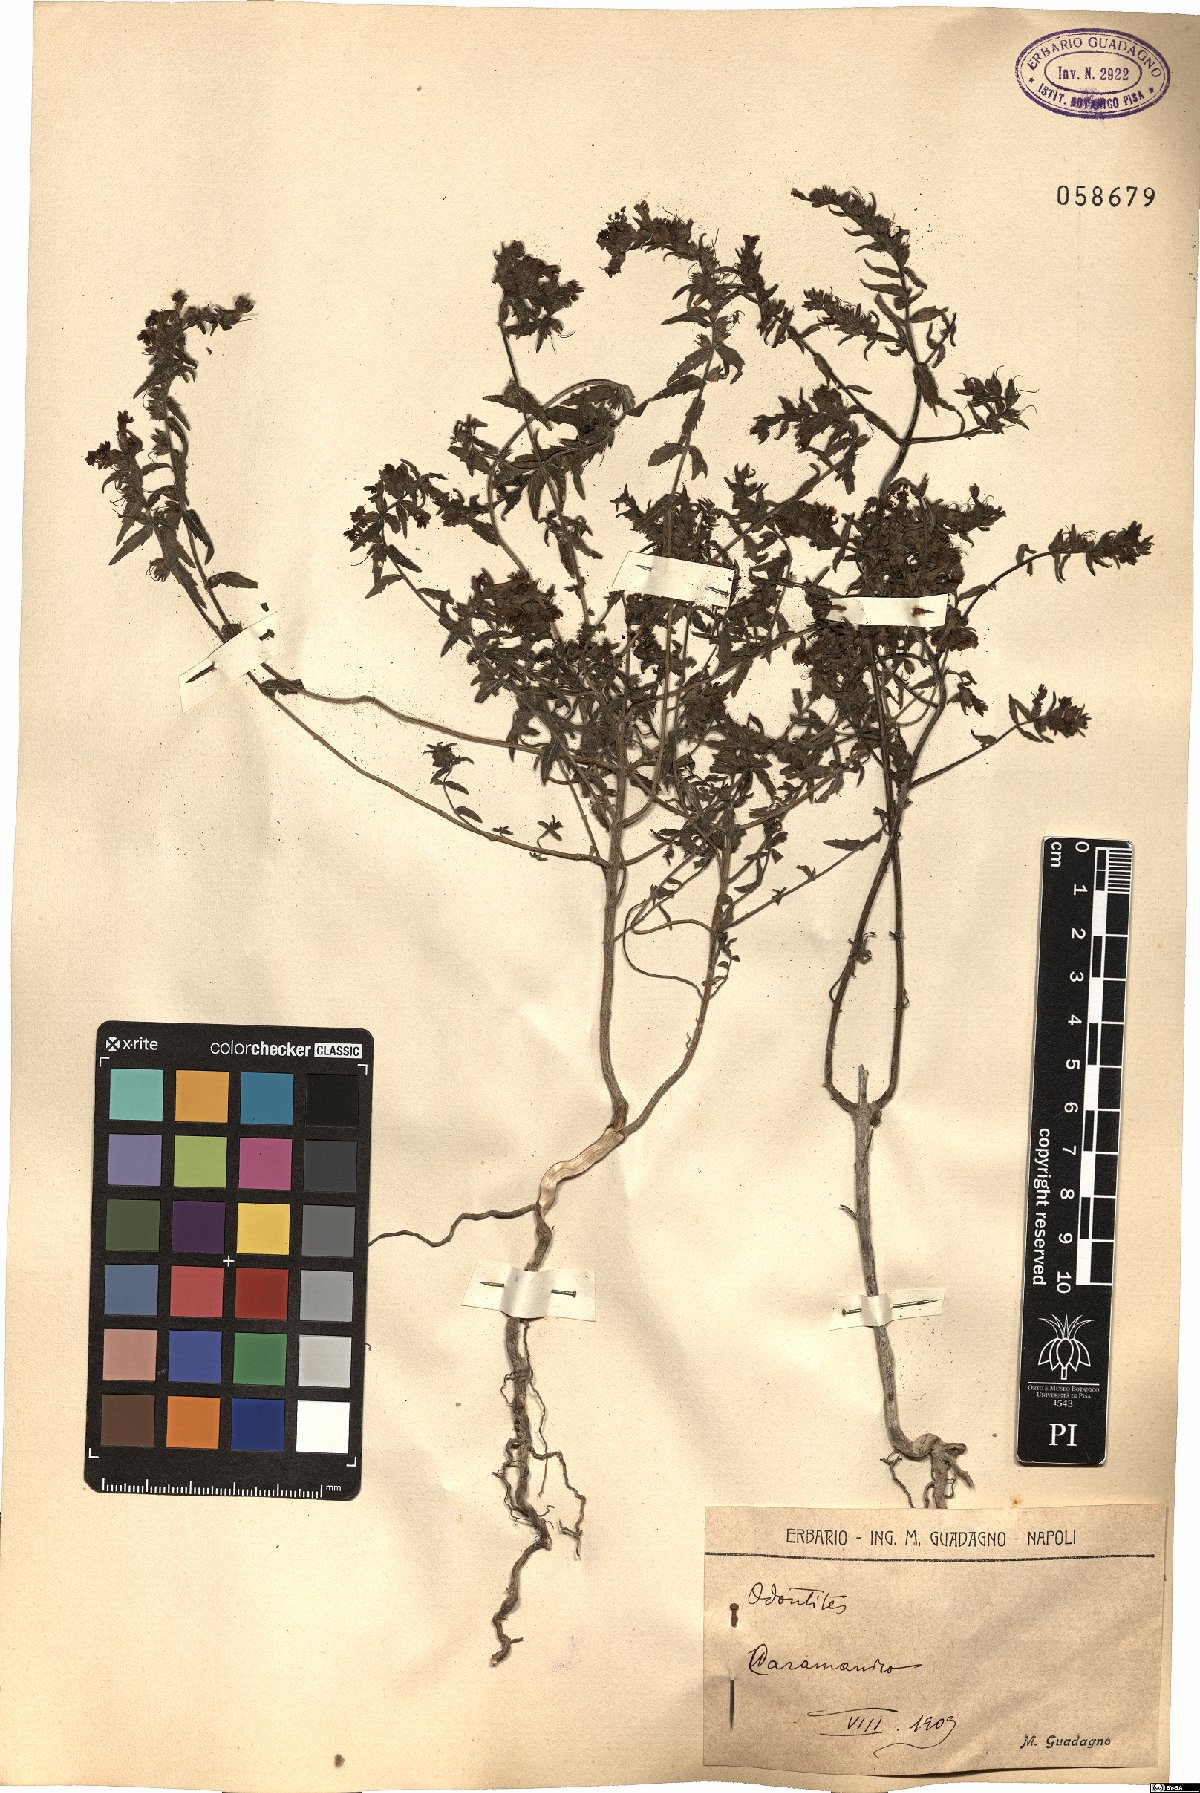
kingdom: Plantae
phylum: Tracheophyta
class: Magnoliopsida
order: Lamiales
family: Orobanchaceae
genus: Odontites
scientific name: Odontites
